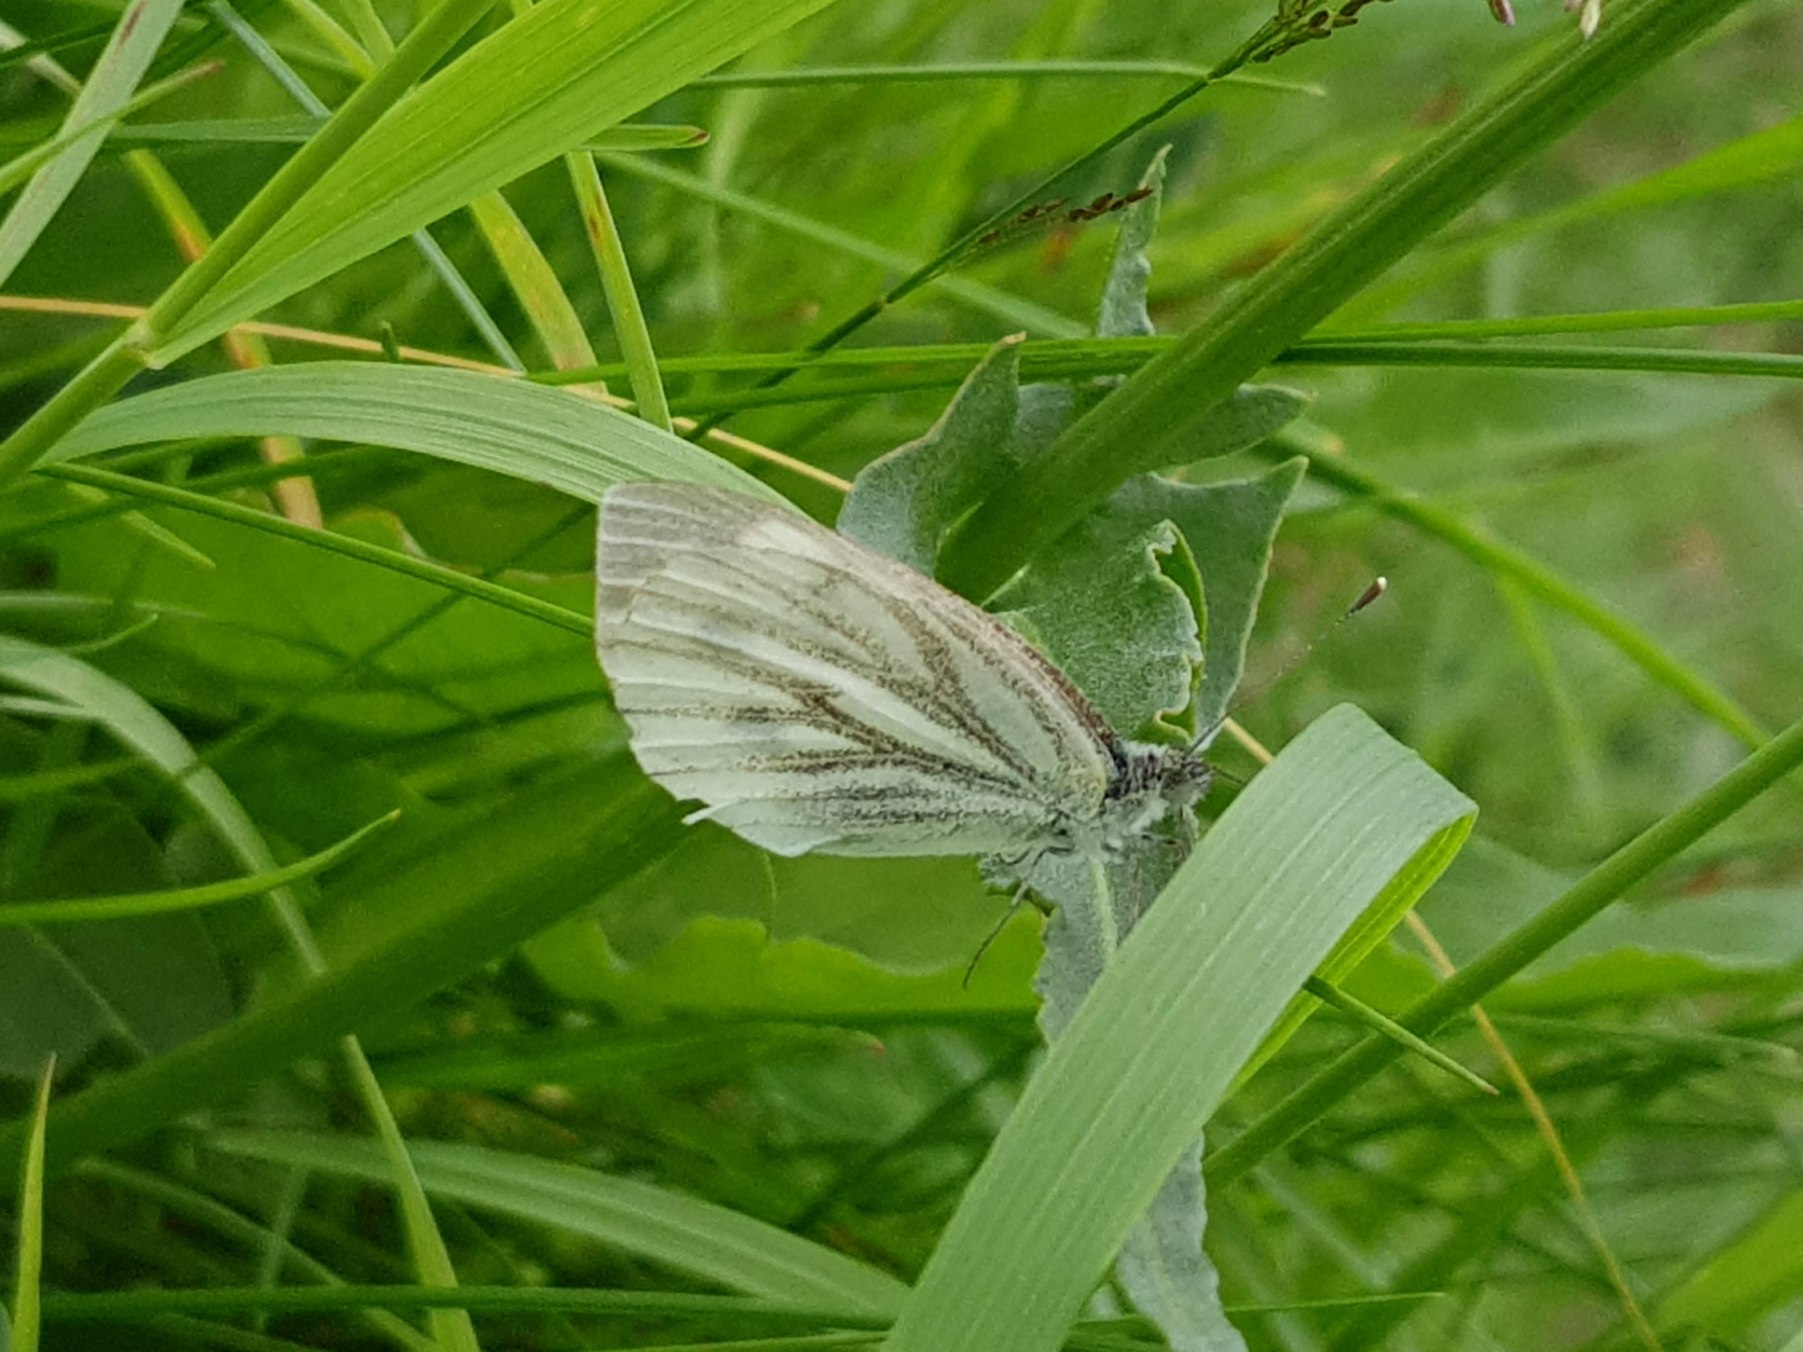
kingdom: Animalia
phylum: Arthropoda
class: Insecta
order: Lepidoptera
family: Pieridae
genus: Pieris
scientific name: Pieris napi
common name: Grønåret kålsommerfugl
